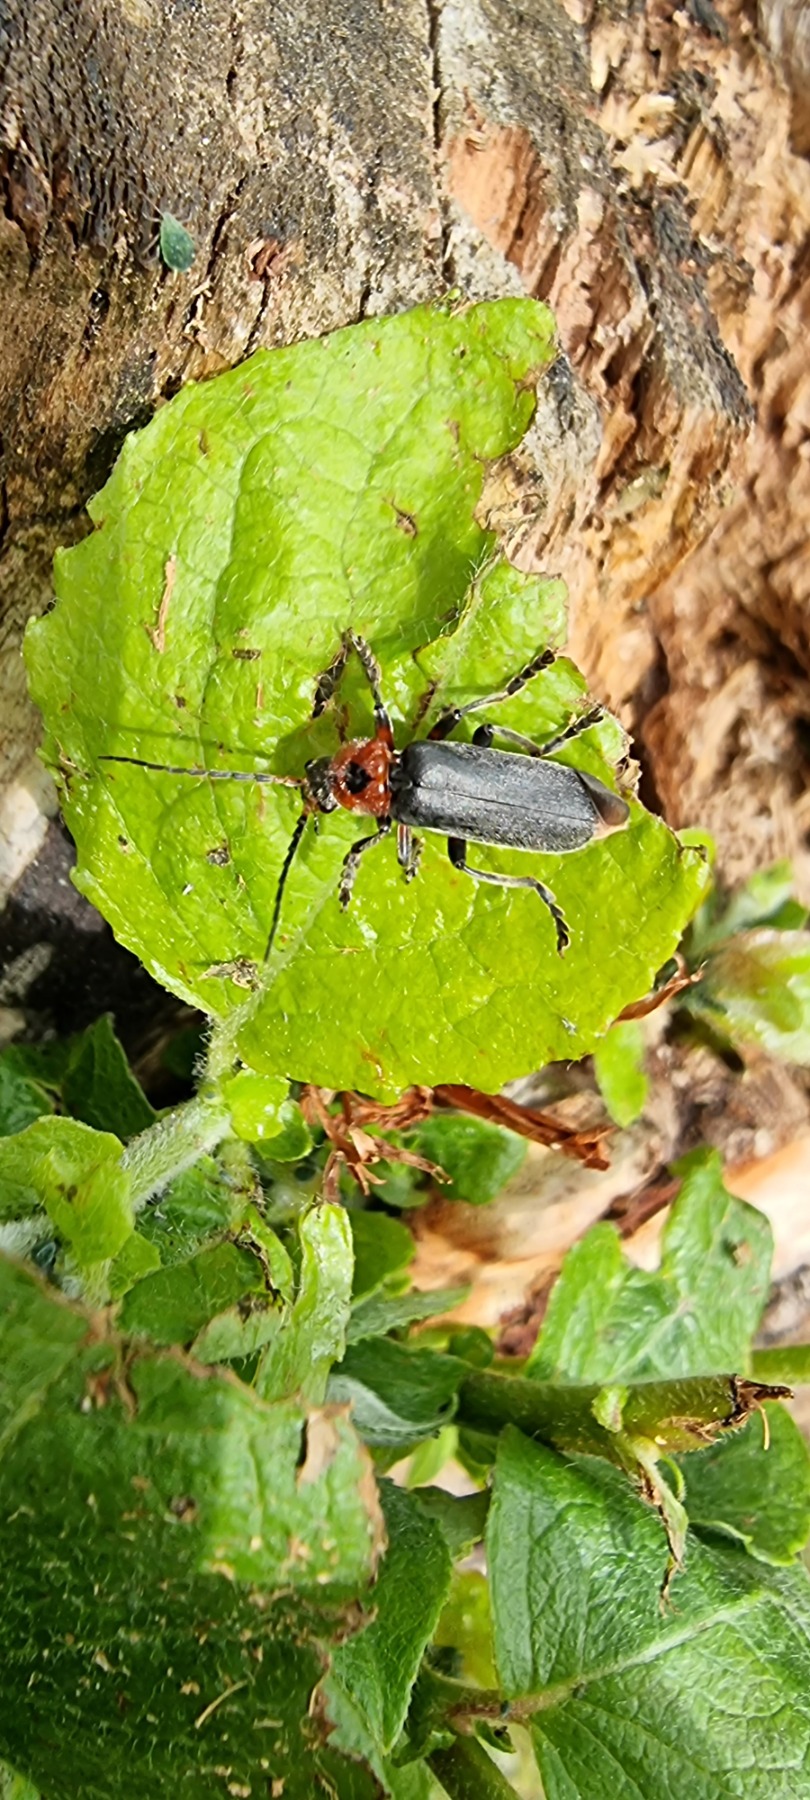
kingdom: Animalia
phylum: Arthropoda
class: Insecta
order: Coleoptera
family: Cantharidae
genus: Cantharis
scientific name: Cantharis rustica
